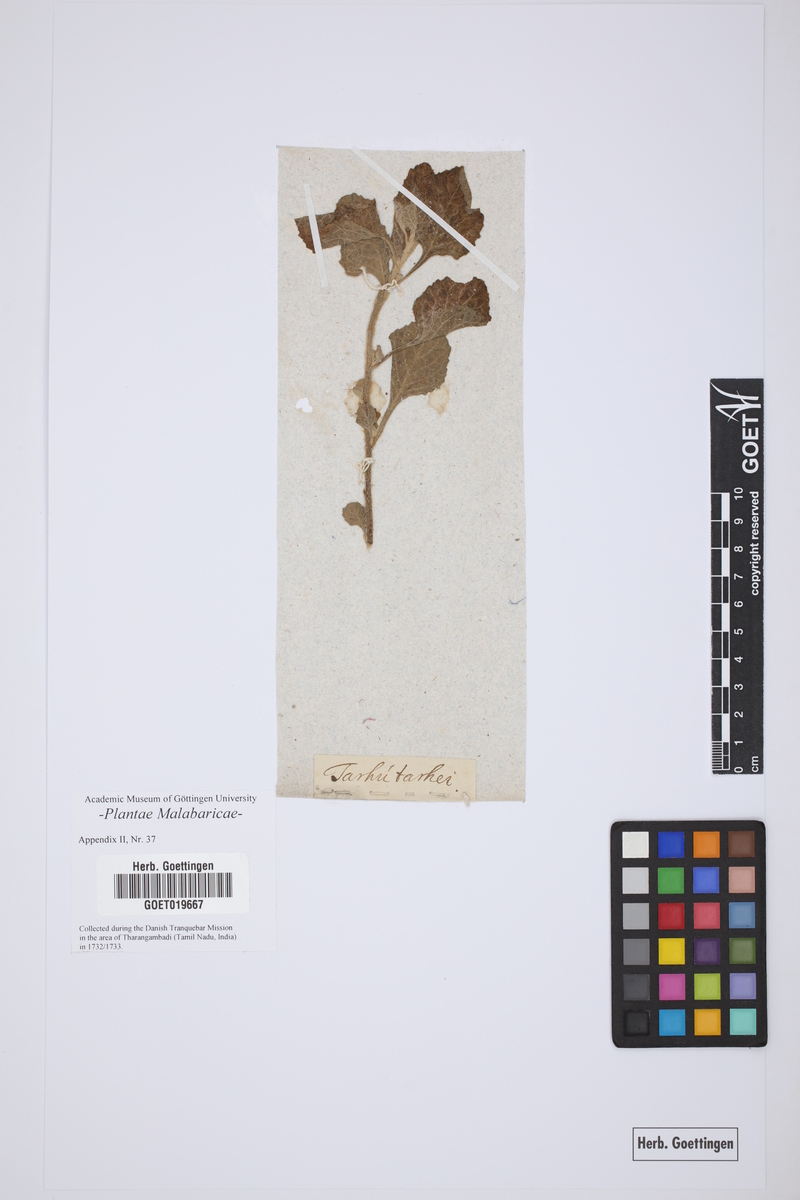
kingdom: Plantae
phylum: Tracheophyta
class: Magnoliopsida
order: Lamiales
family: Lamiaceae
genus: Clerodendrum
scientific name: Clerodendrum phlomoides
